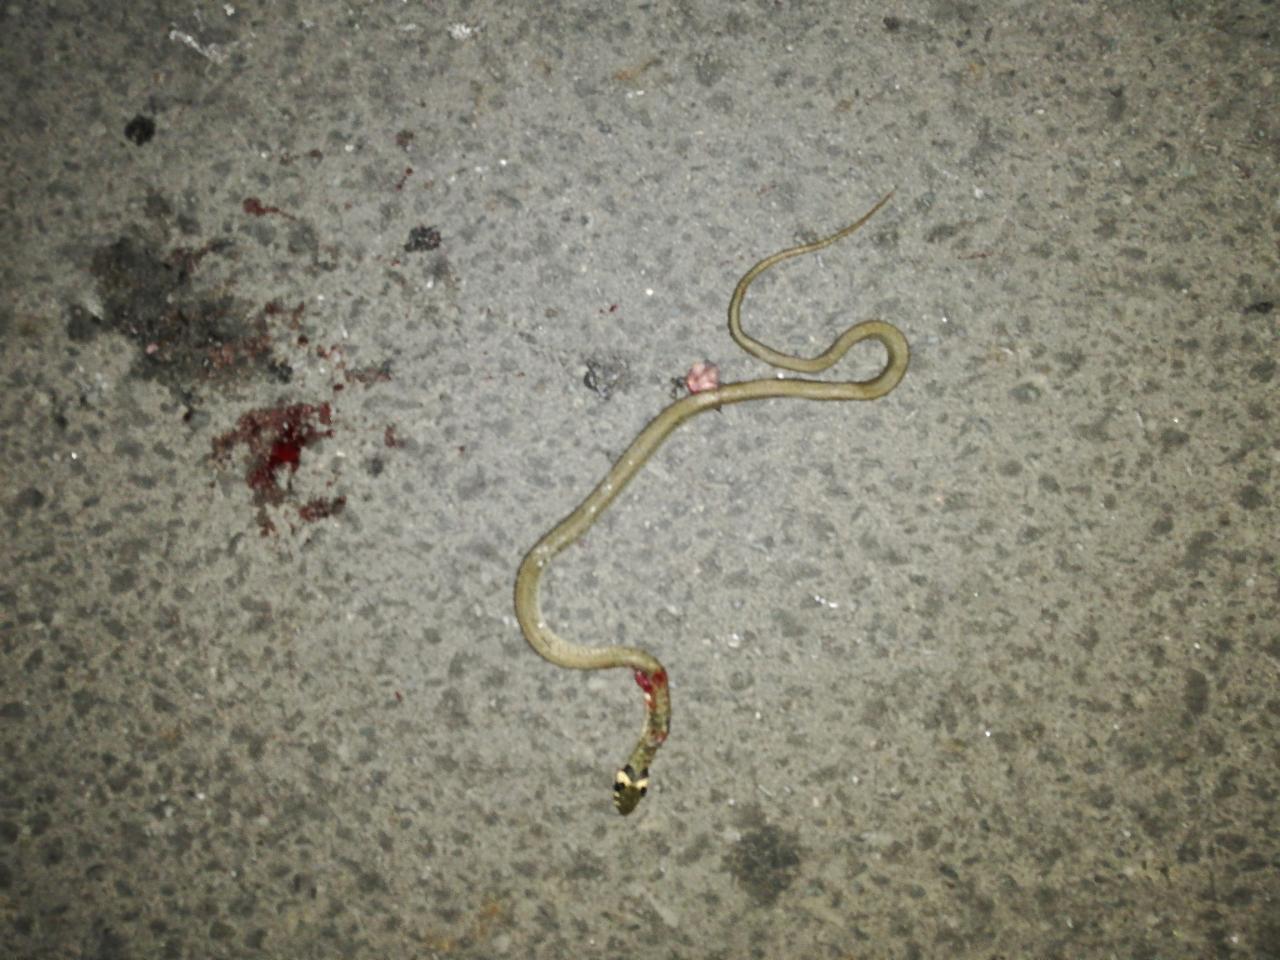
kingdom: Animalia
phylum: Chordata
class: Squamata
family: Colubridae
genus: Natrix
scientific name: Natrix natrix
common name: Grass snake
